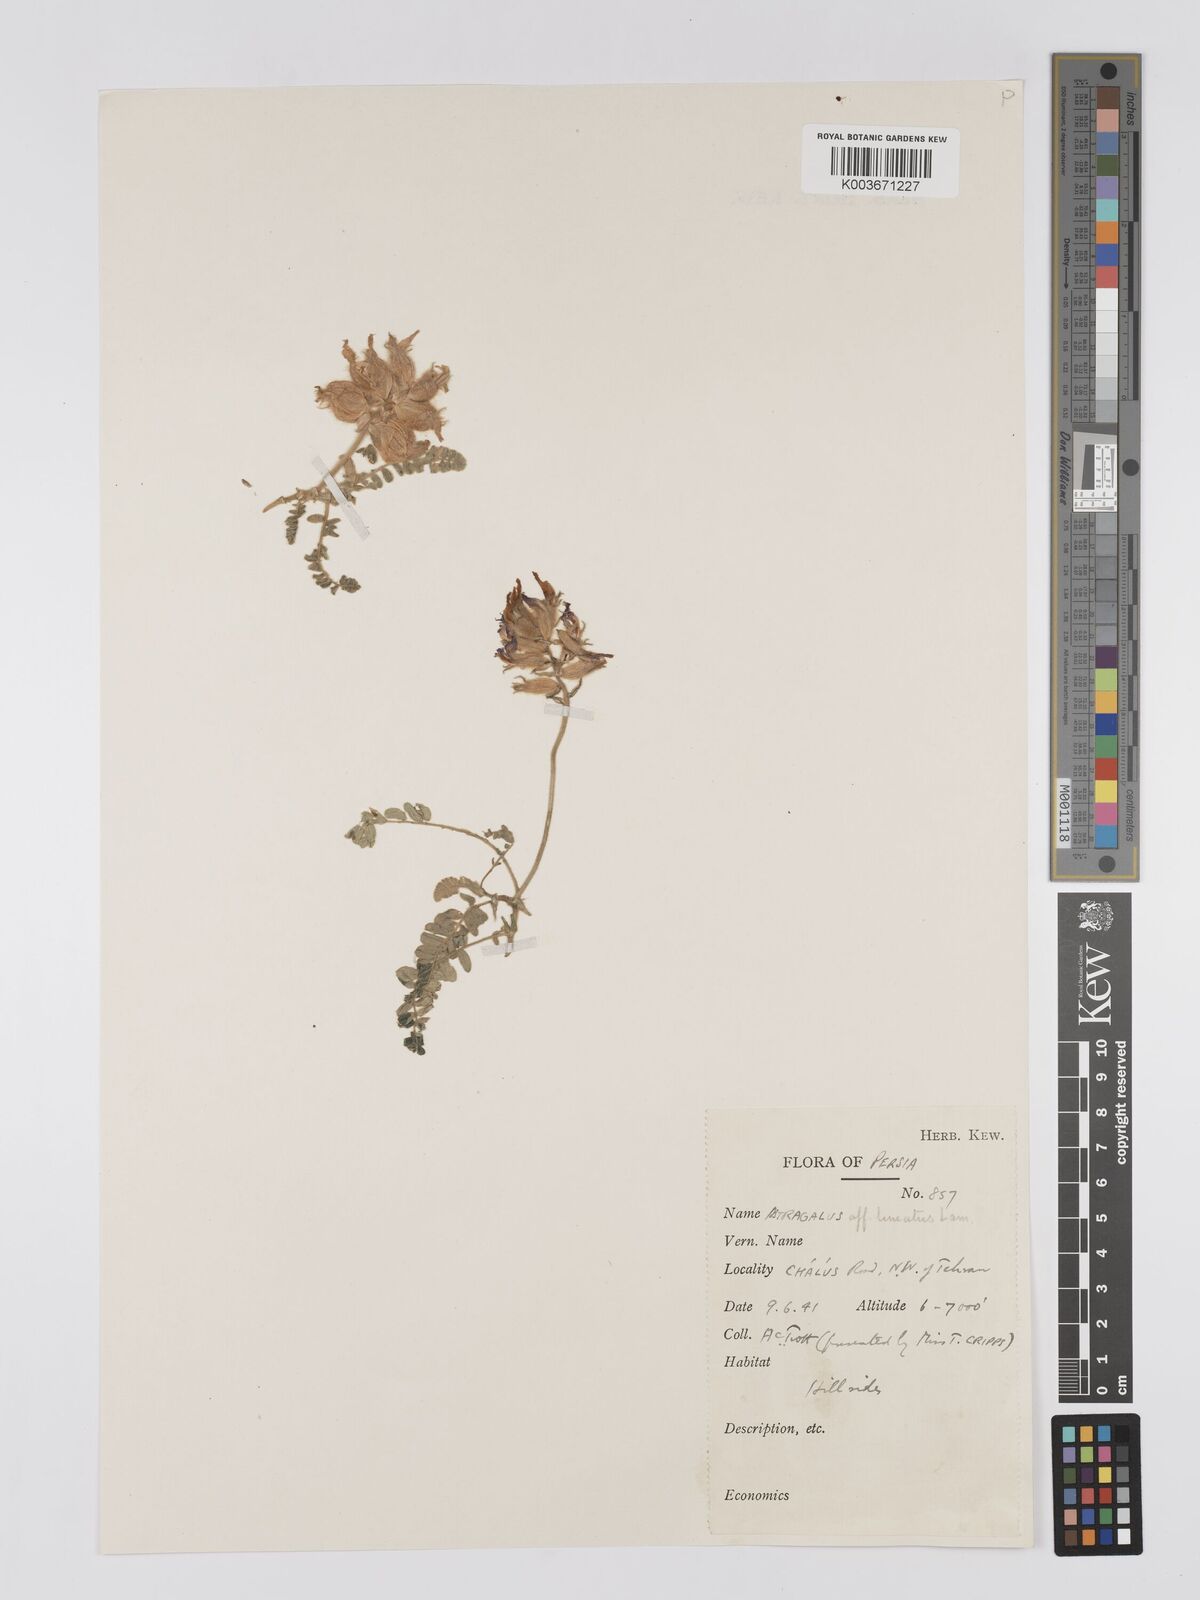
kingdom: Plantae
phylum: Tracheophyta
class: Magnoliopsida
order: Fabales
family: Fabaceae
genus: Astragalus
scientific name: Astragalus lineatus
